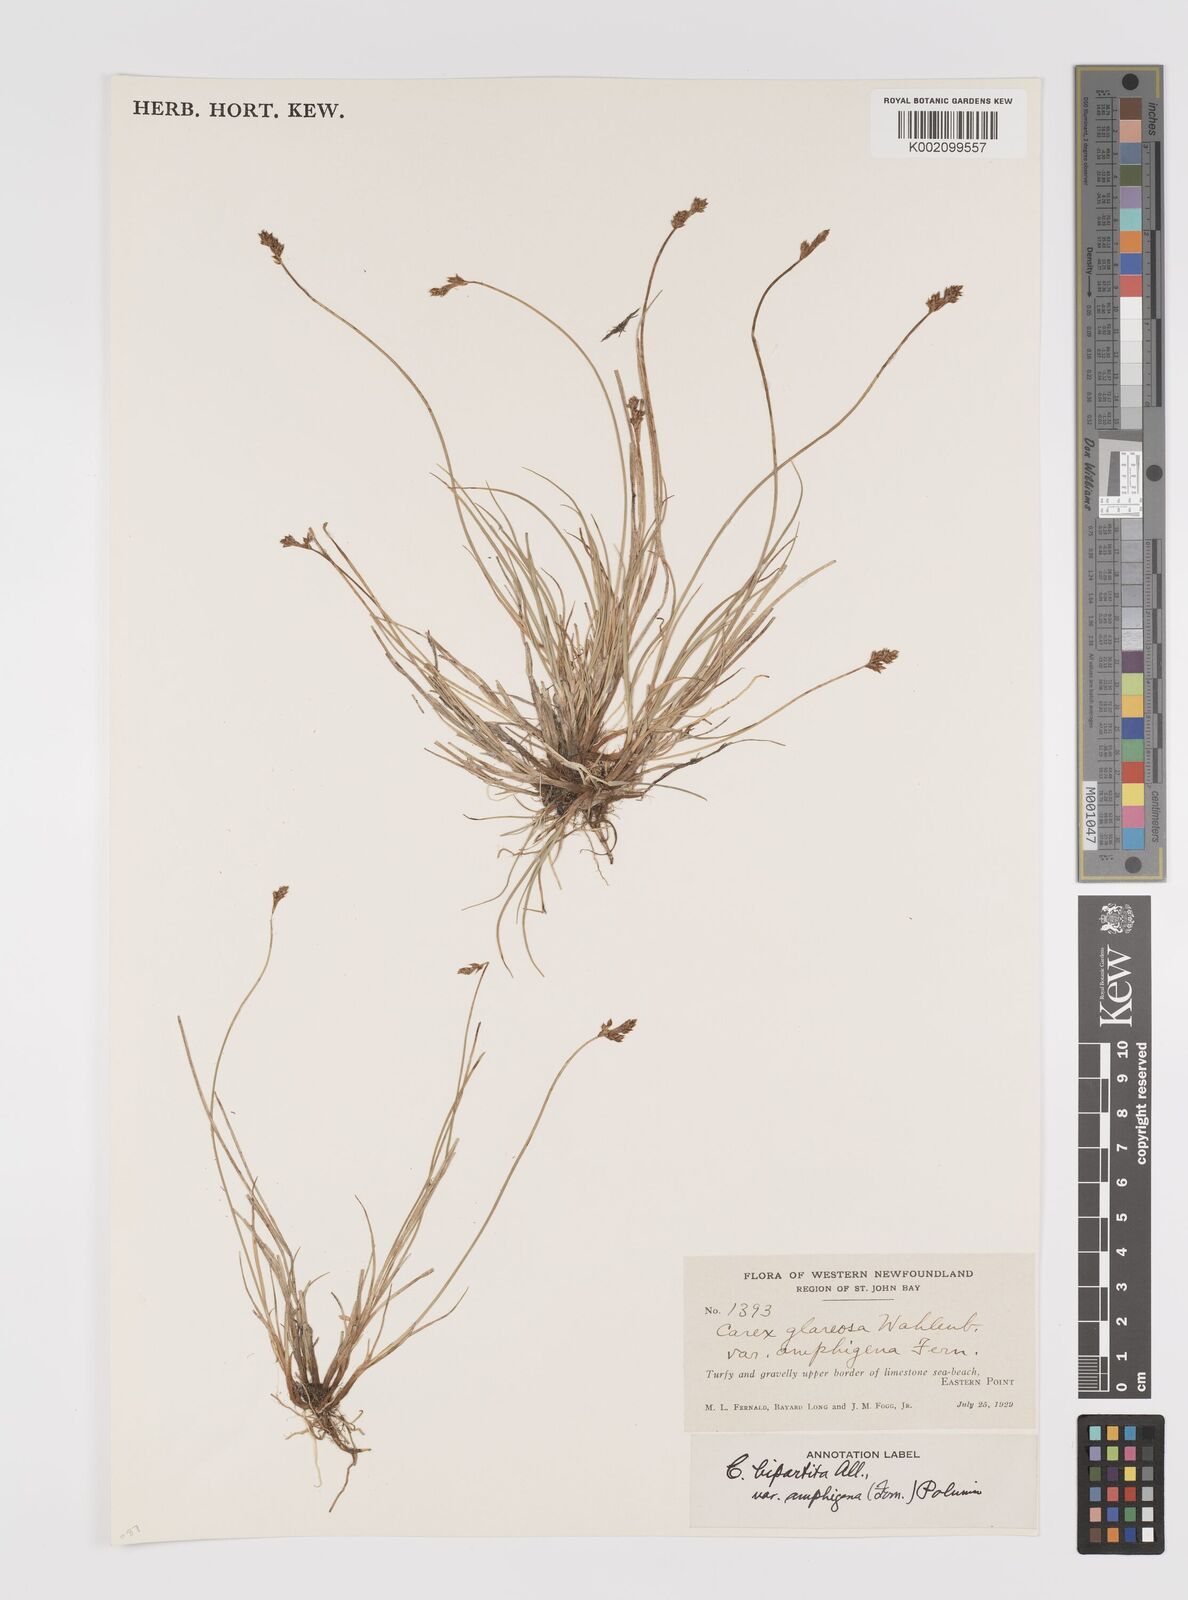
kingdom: Plantae
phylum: Tracheophyta
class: Liliopsida
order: Poales
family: Cyperaceae
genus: Carex
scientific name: Carex lachenalii
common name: Hare's-foot sedge
